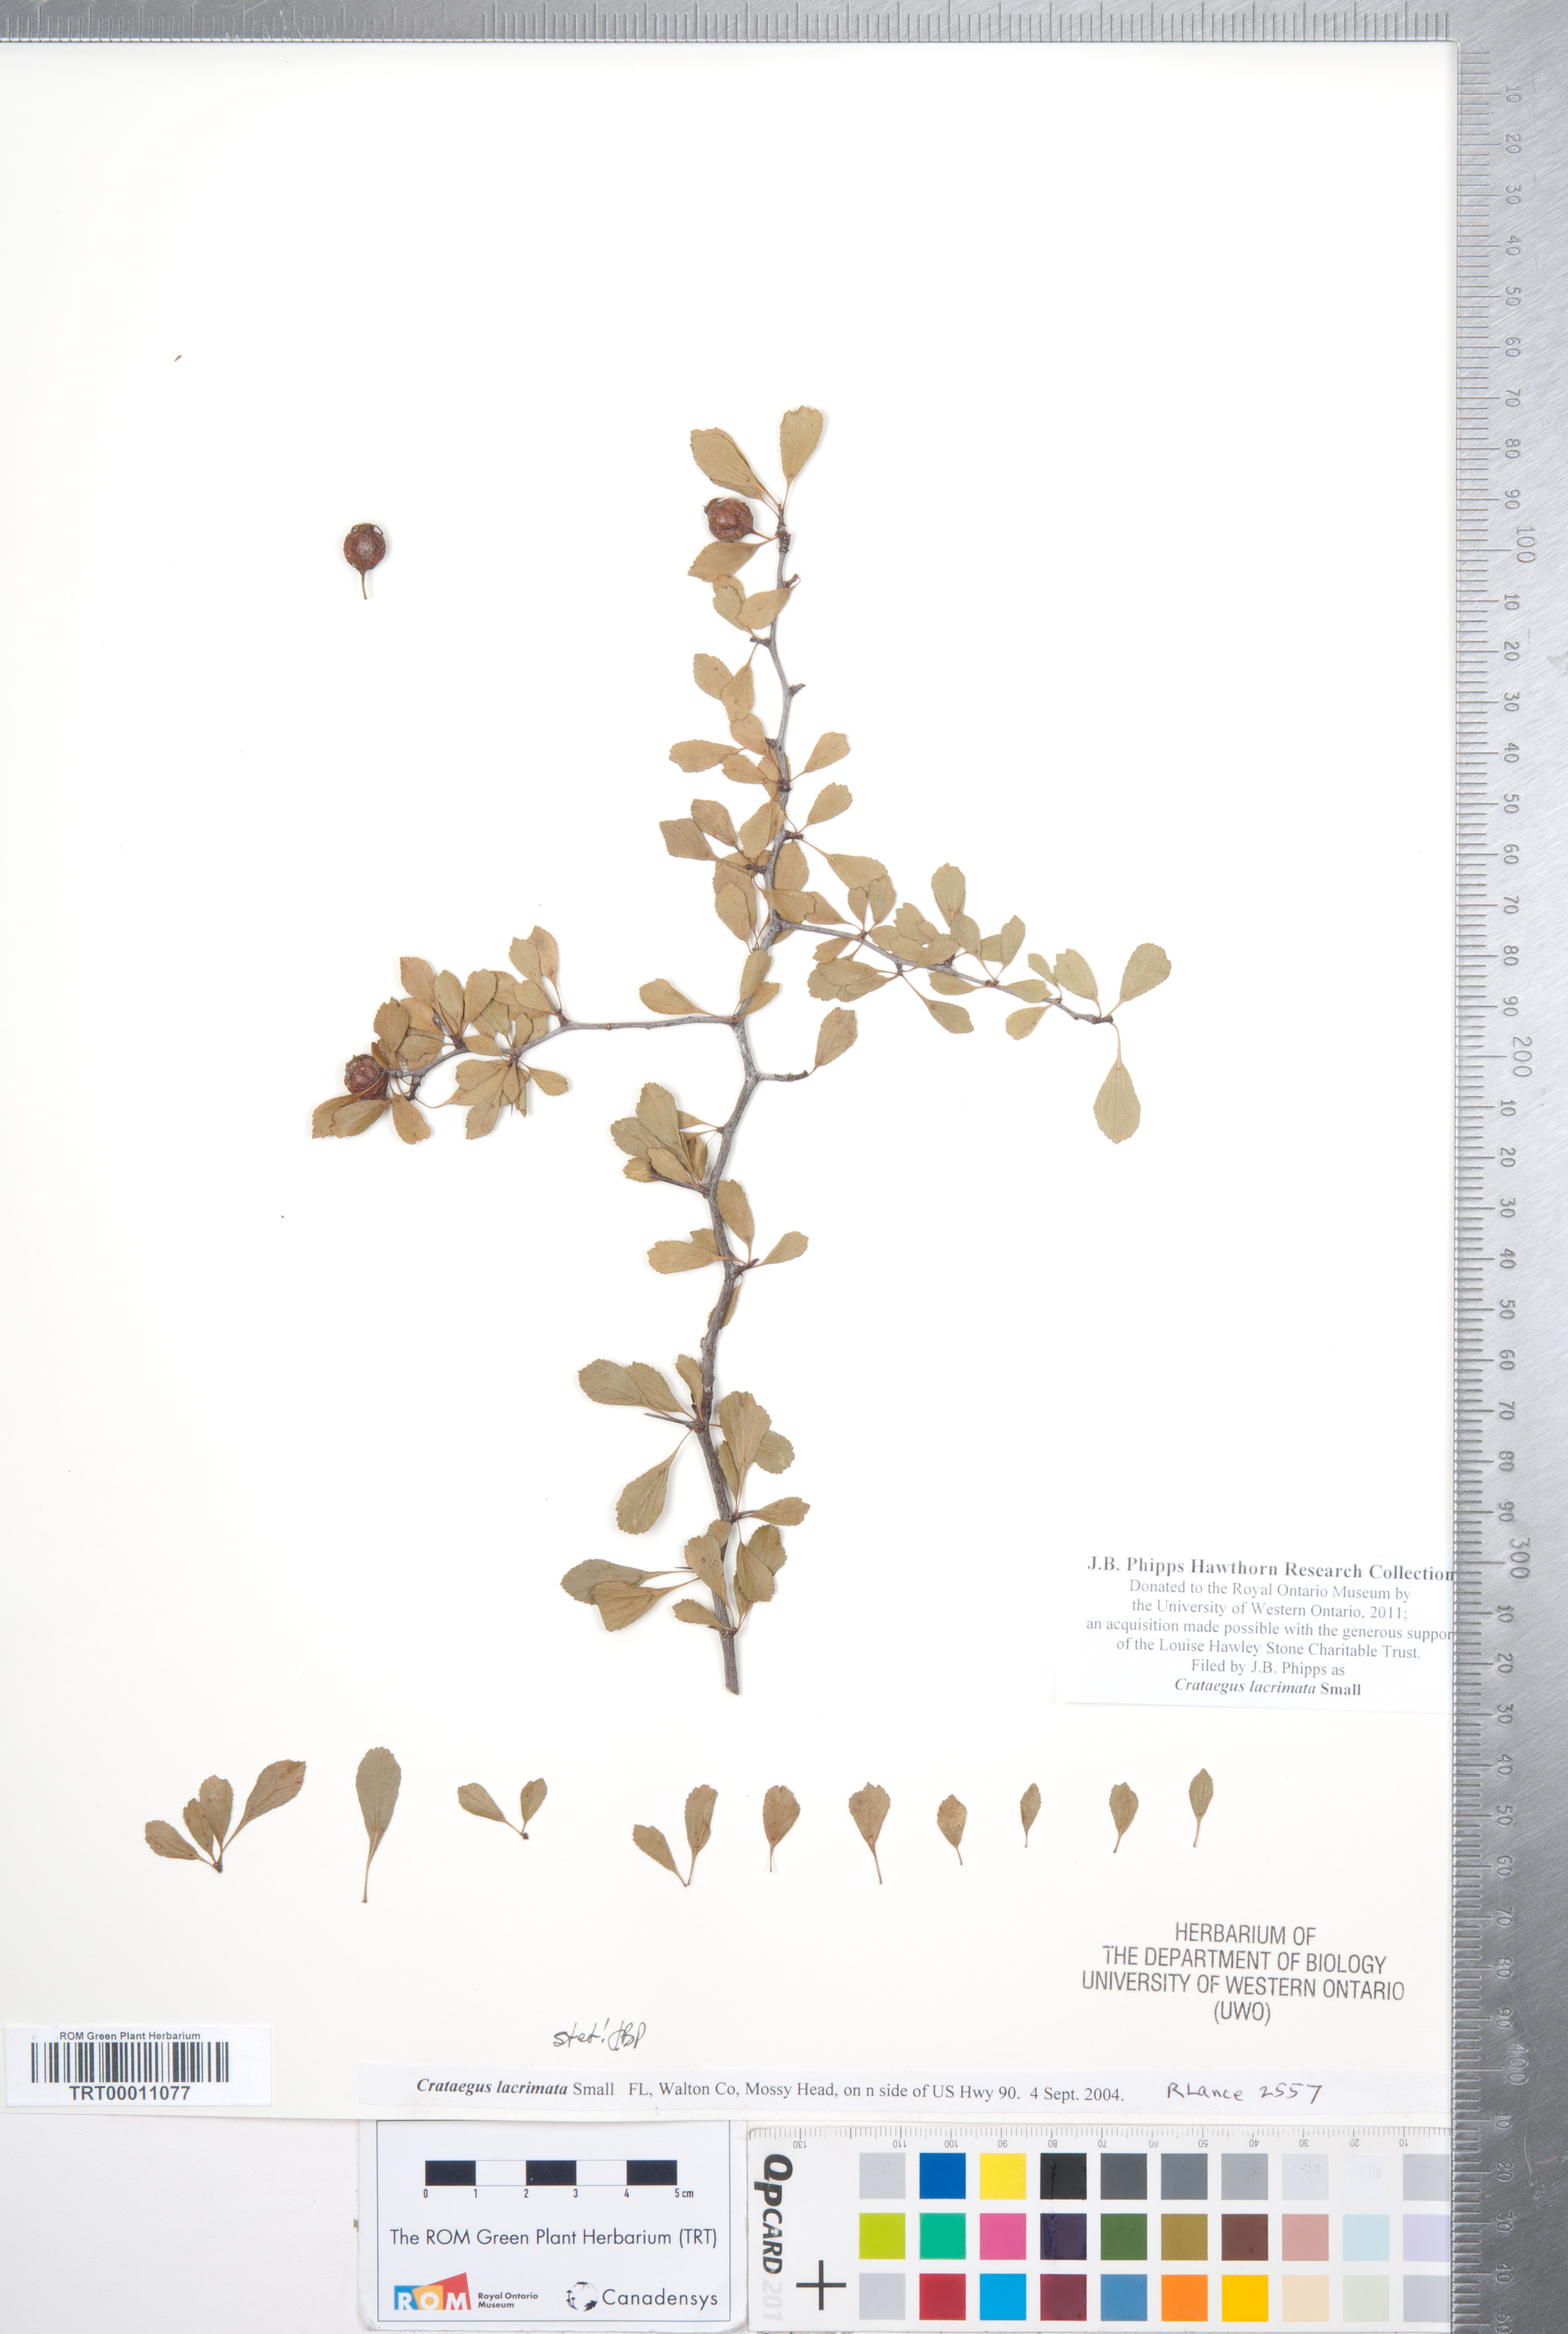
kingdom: Plantae
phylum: Tracheophyta
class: Magnoliopsida
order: Rosales
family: Rosaceae
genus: Crataegus
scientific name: Crataegus lacrimata
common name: Weeping hawthorn
